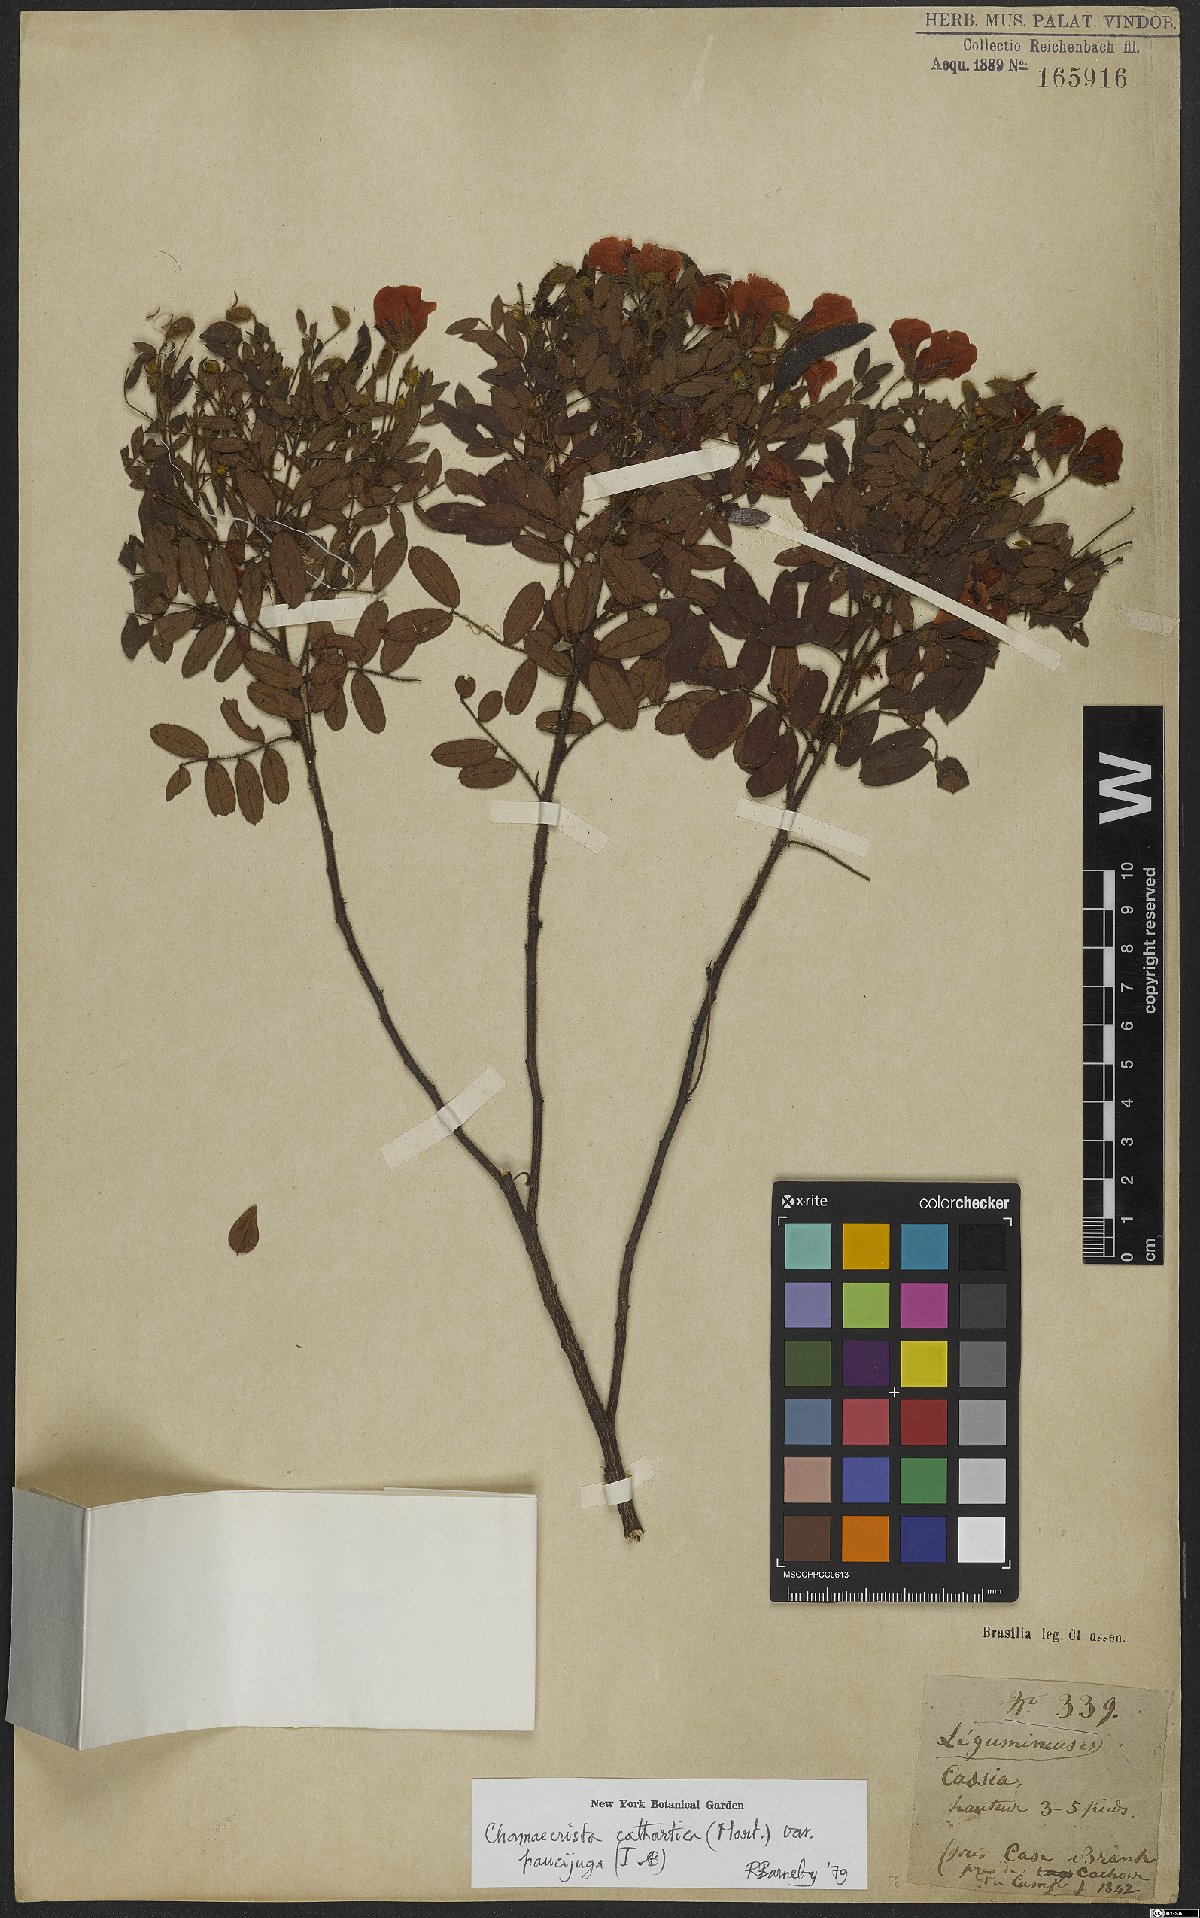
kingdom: Plantae
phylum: Tracheophyta
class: Magnoliopsida
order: Fabales
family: Fabaceae
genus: Chamaecrista
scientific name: Chamaecrista cathartica
